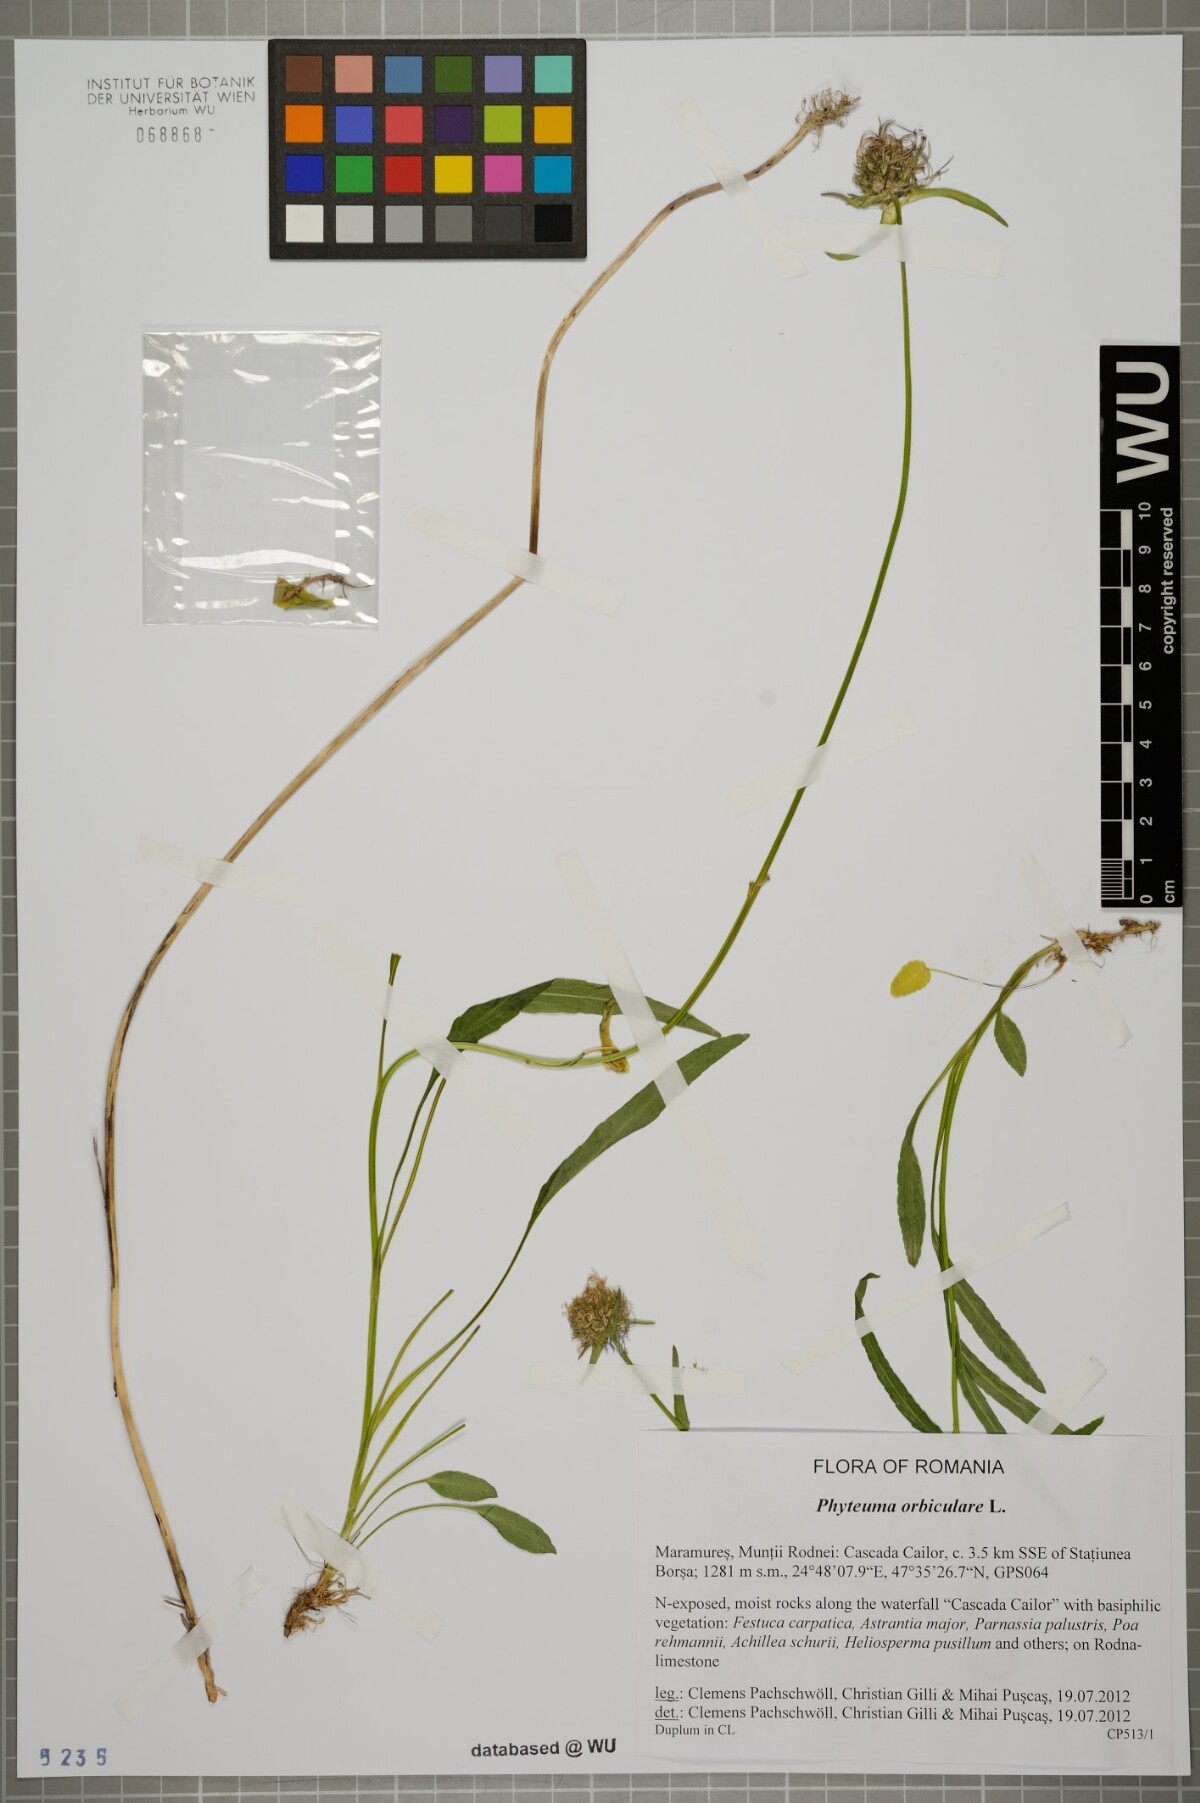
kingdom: Plantae
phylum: Tracheophyta
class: Magnoliopsida
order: Asterales
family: Campanulaceae
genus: Phyteuma
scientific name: Phyteuma orbiculare
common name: Round-headed rampion
